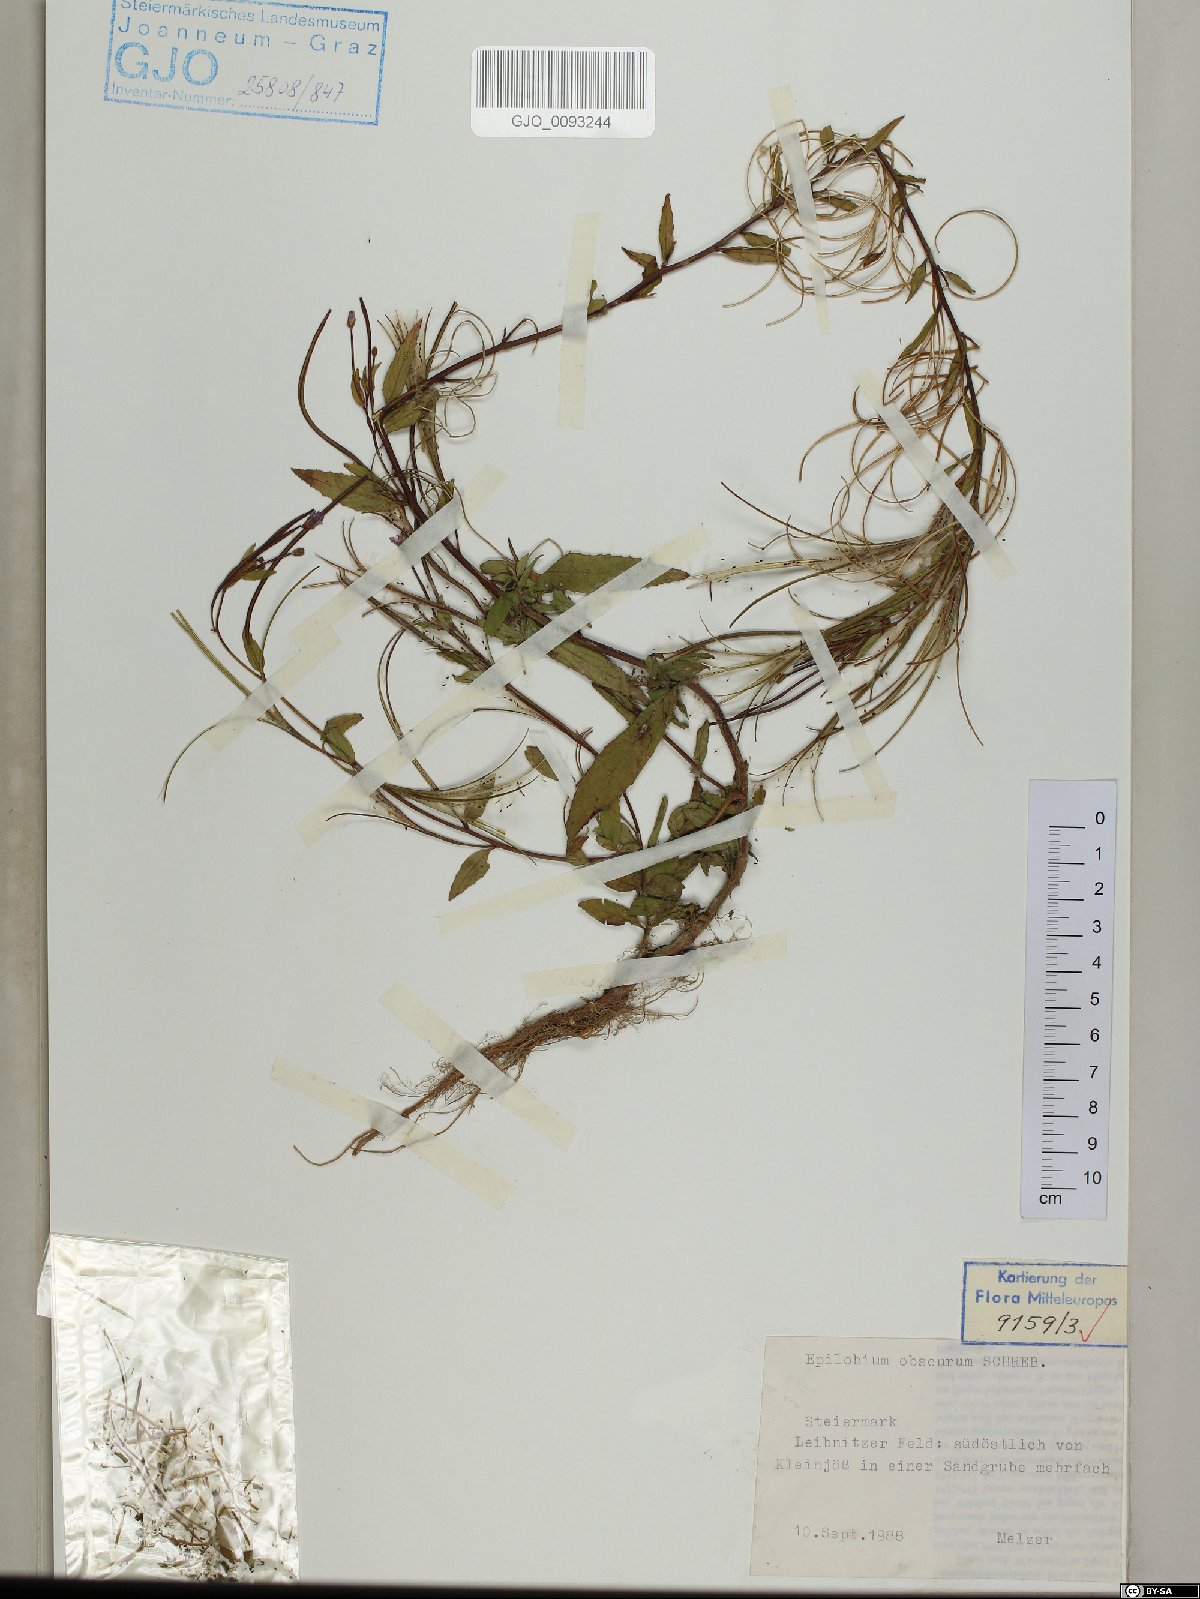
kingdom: Plantae
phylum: Tracheophyta
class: Magnoliopsida
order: Myrtales
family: Onagraceae
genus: Epilobium
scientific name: Epilobium obscurum
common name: Short-fruited willowherb
